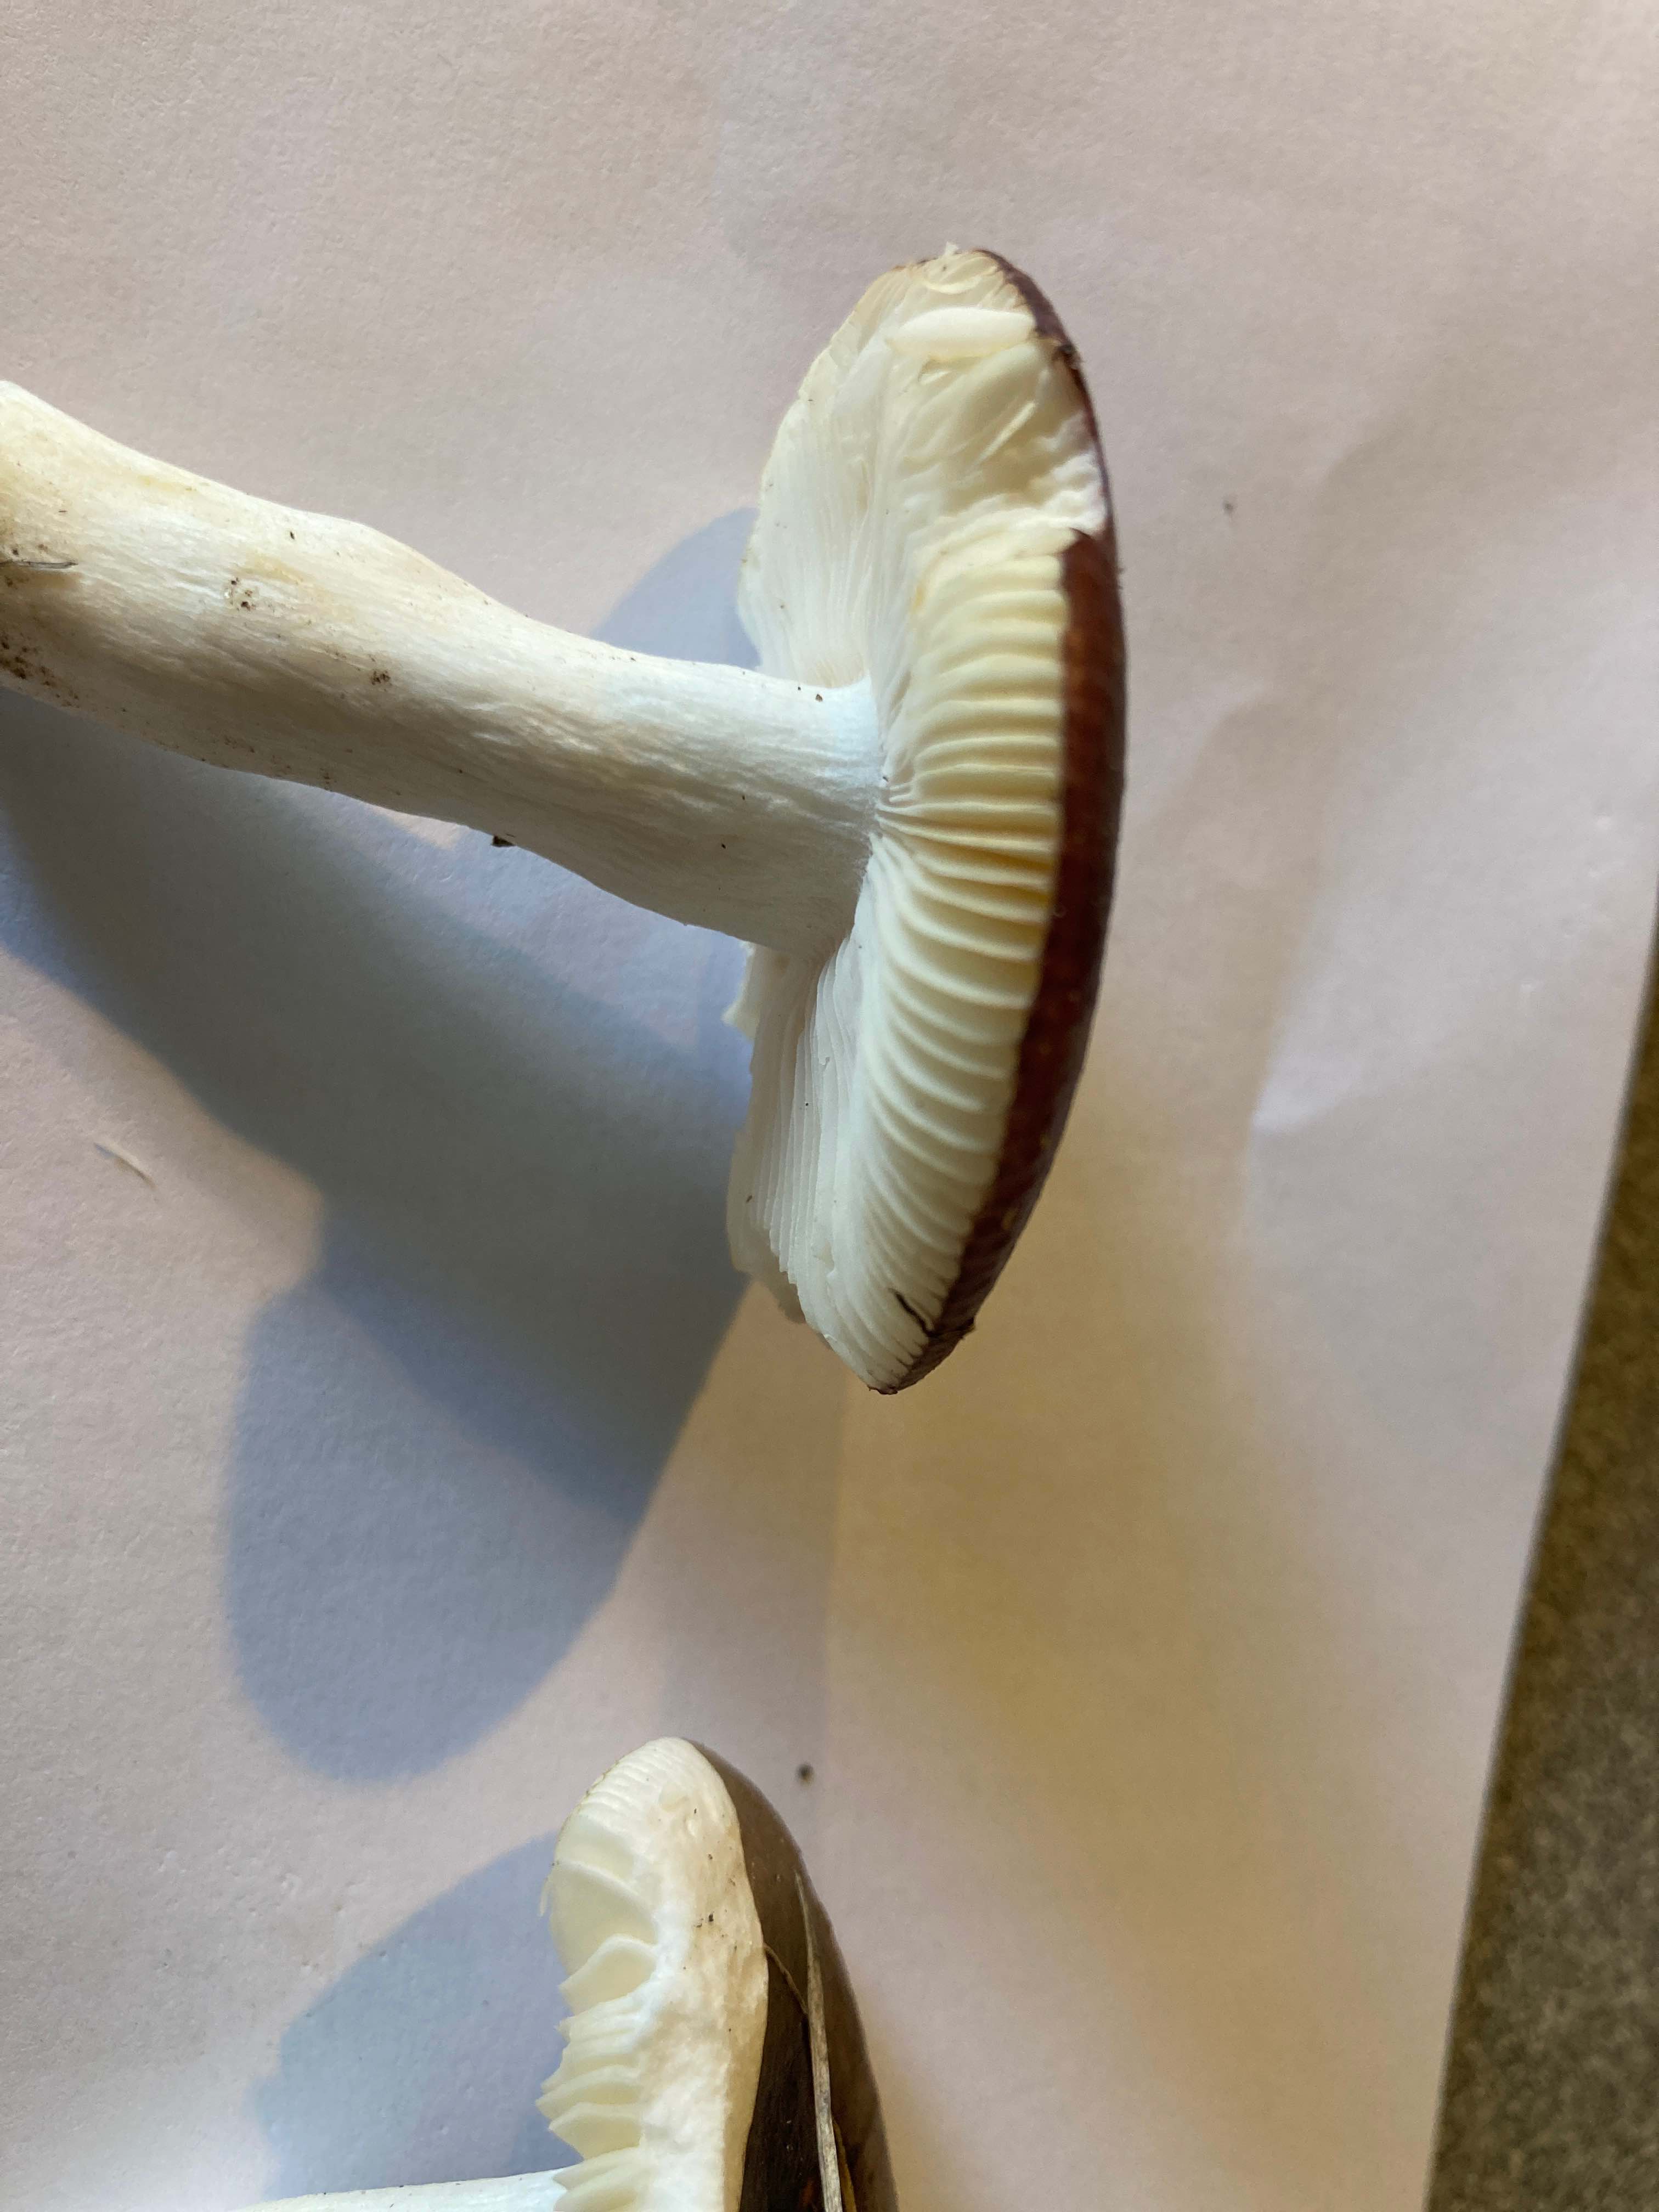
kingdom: Fungi
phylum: Basidiomycota
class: Agaricomycetes
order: Russulales
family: Russulaceae
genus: Russula
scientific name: Russula
